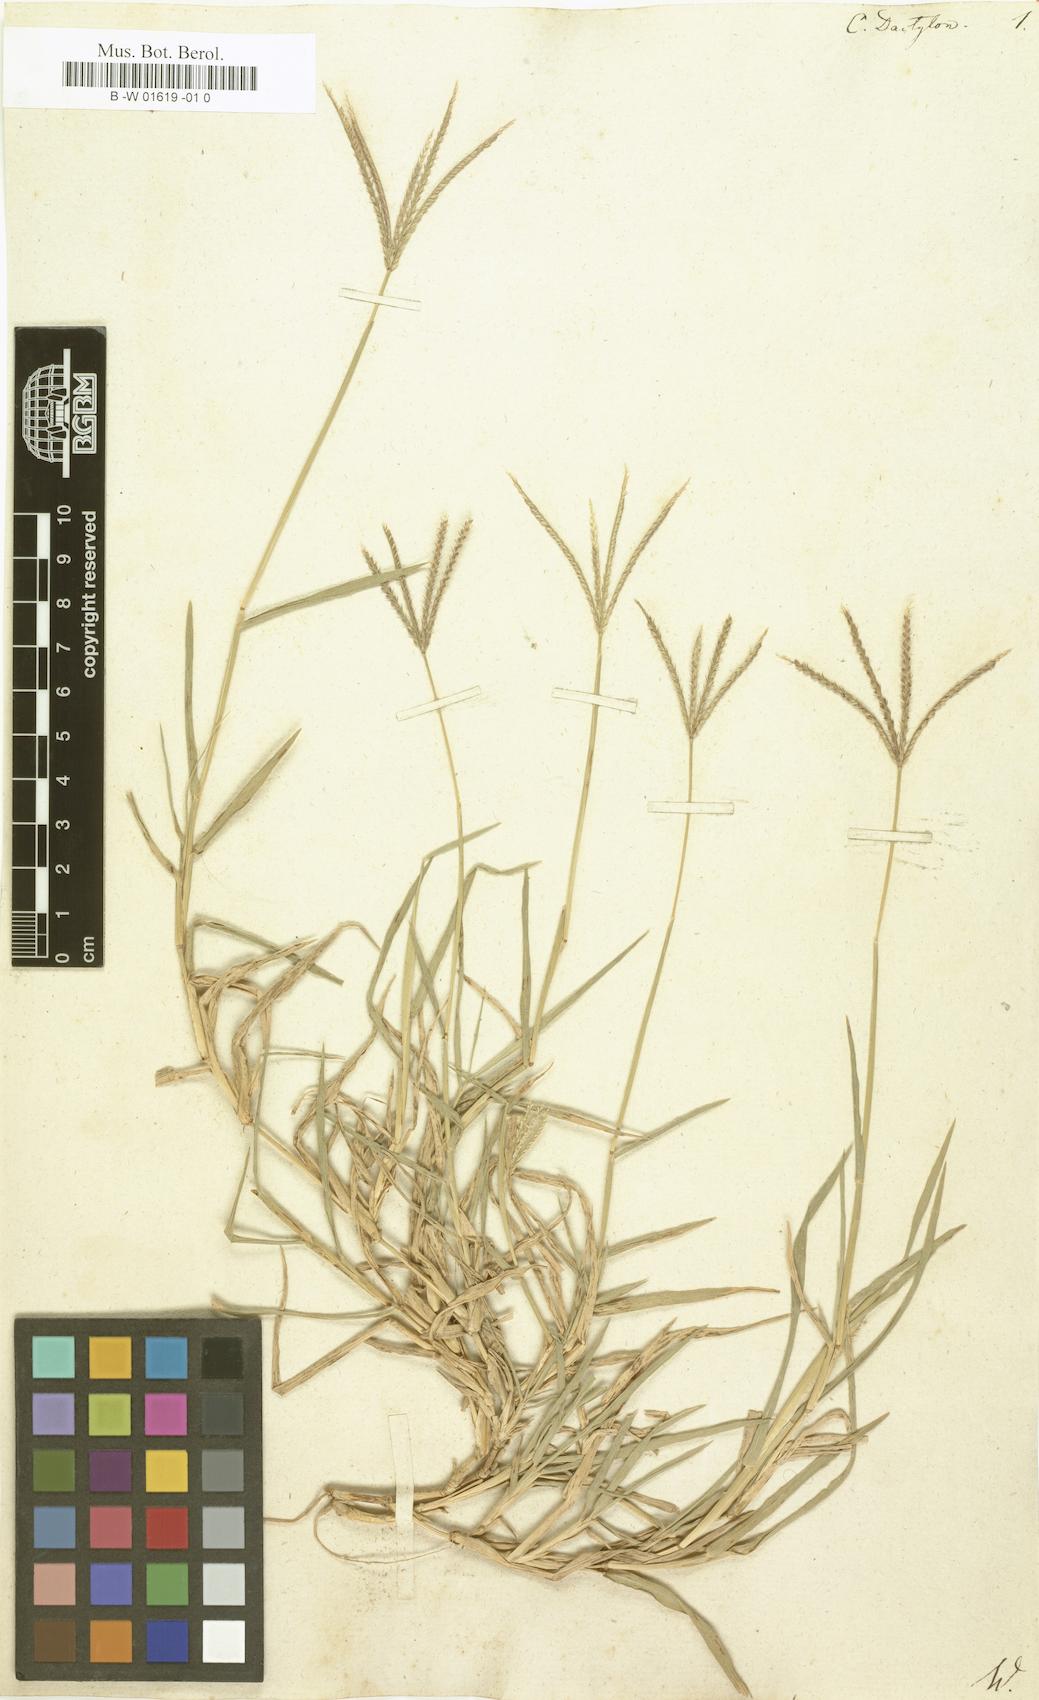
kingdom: Plantae
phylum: Tracheophyta
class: Liliopsida
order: Poales
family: Poaceae
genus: Cynodon
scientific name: Cynodon dactylon
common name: Bermuda grass
